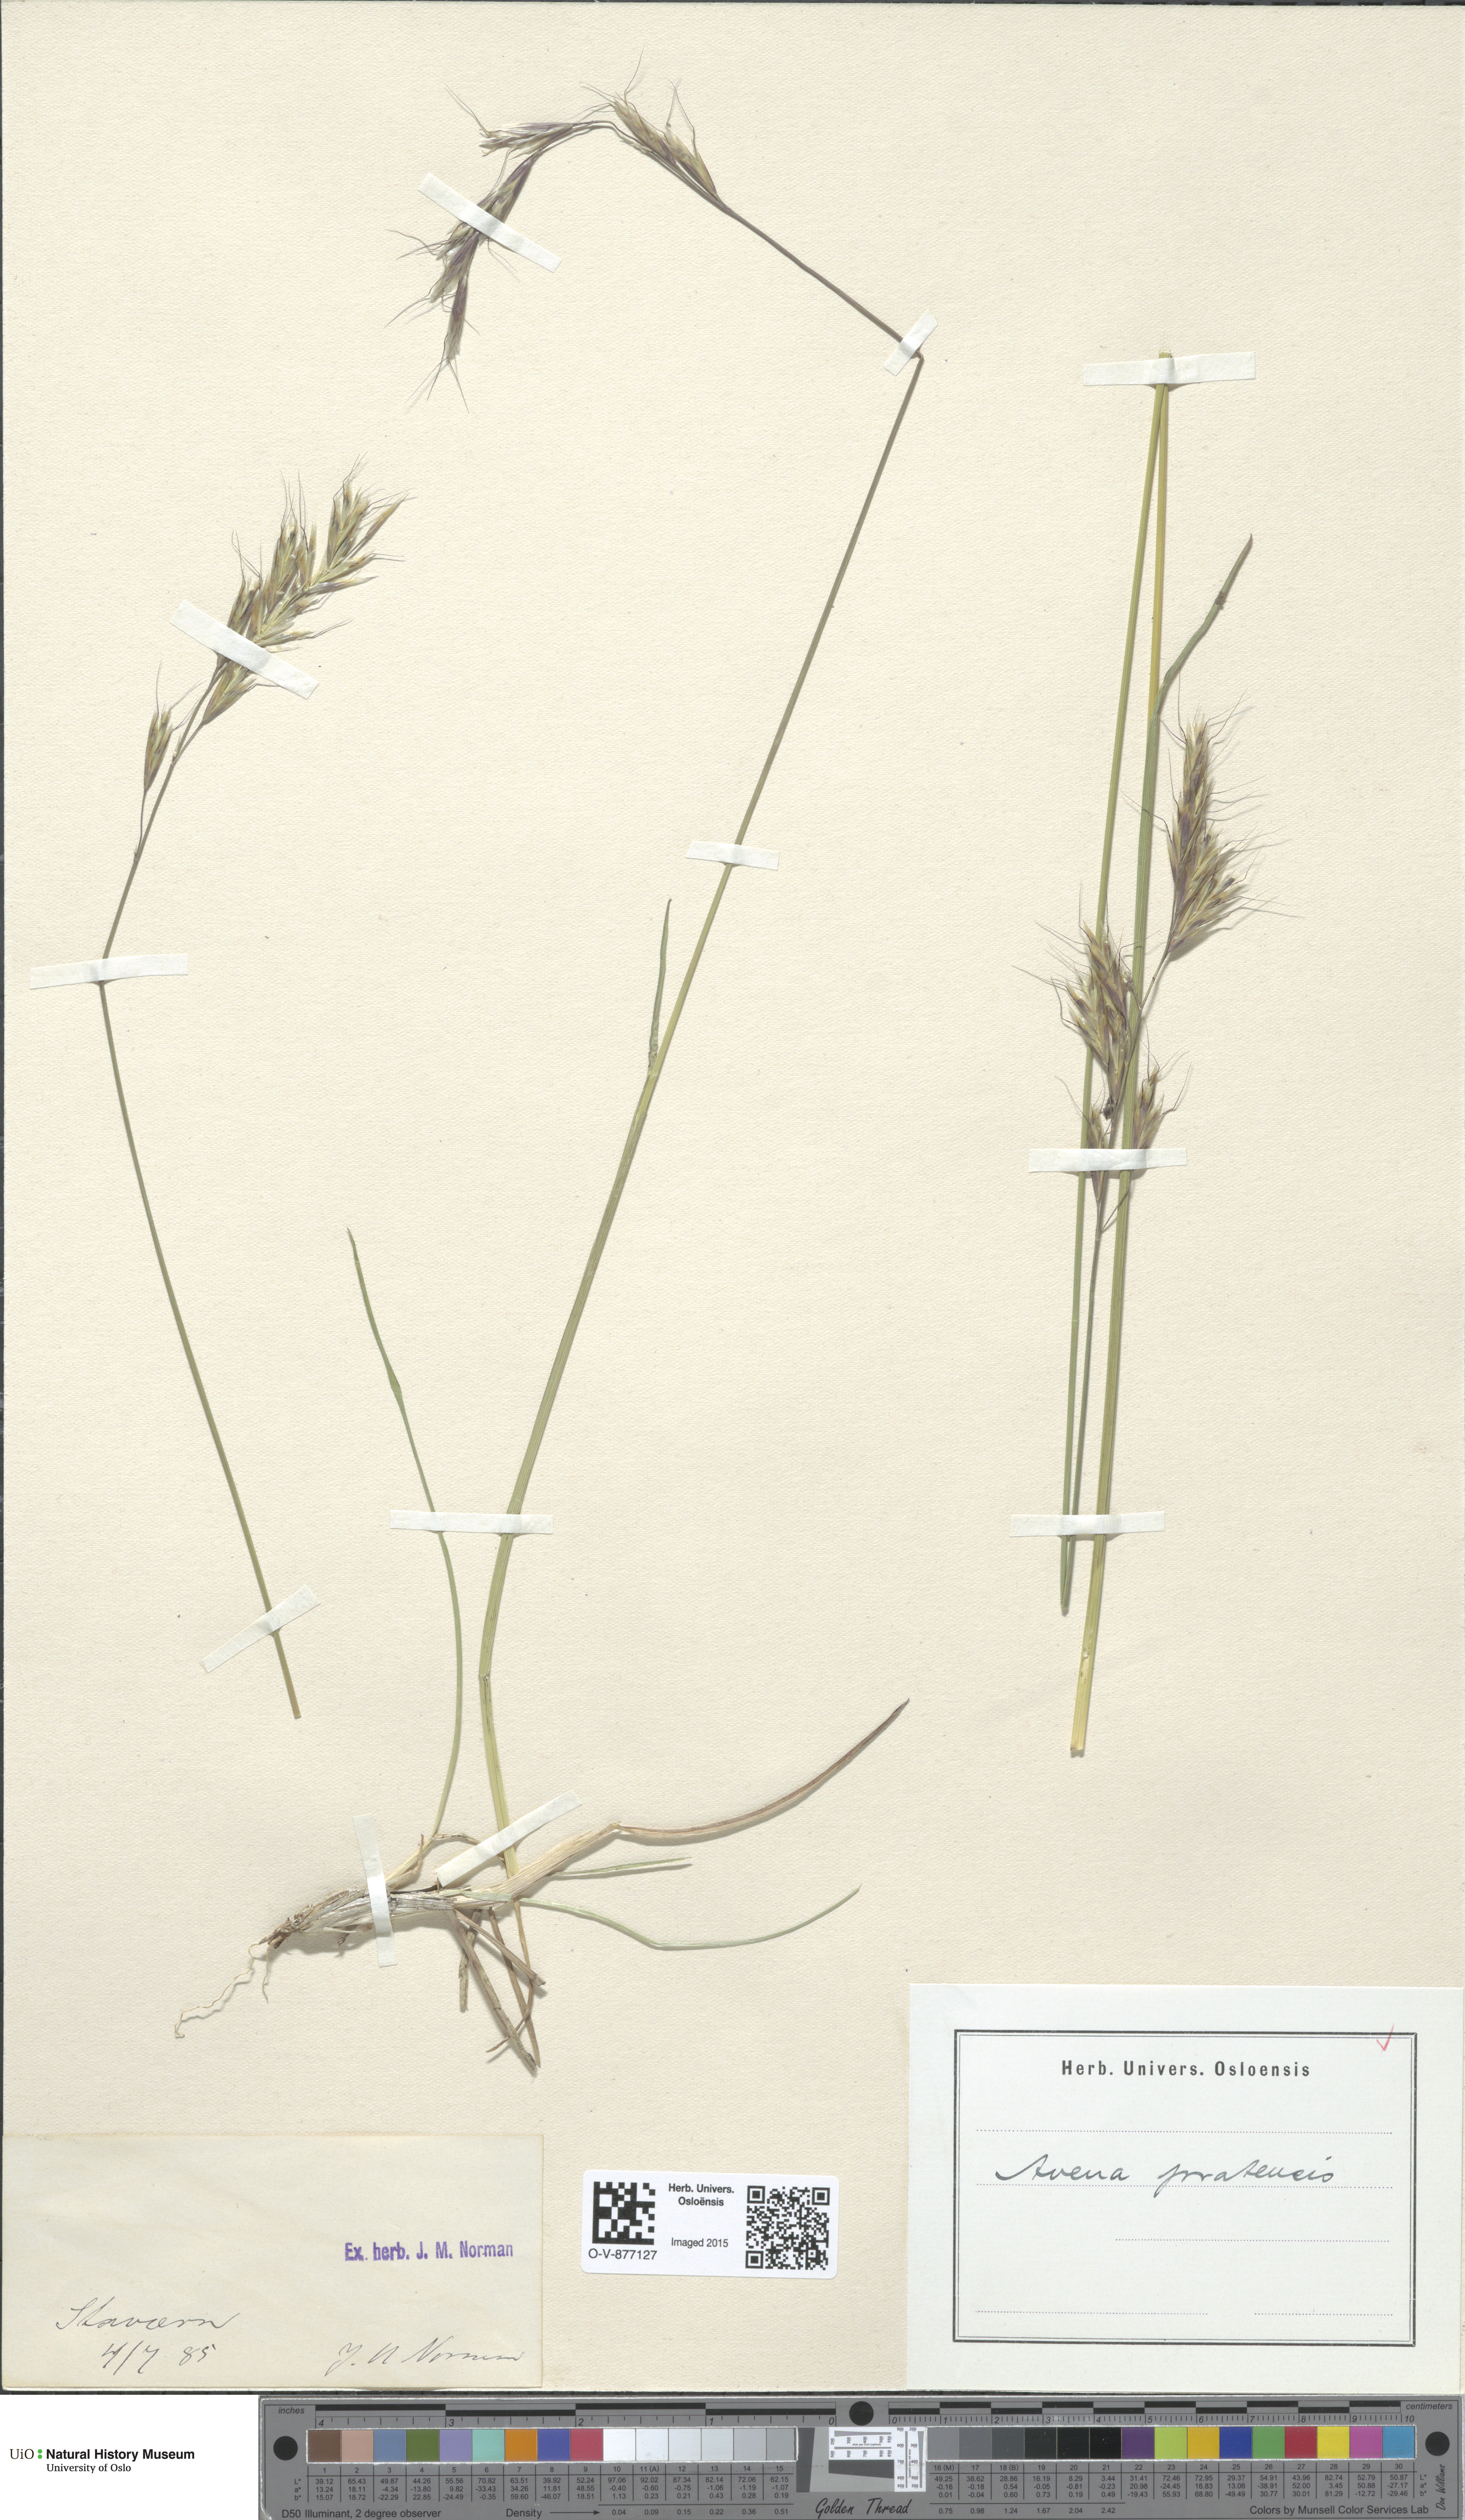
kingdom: Plantae
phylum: Tracheophyta
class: Liliopsida
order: Poales
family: Poaceae
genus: Helictochloa
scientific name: Helictochloa pratensis
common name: Meadow oat grass
